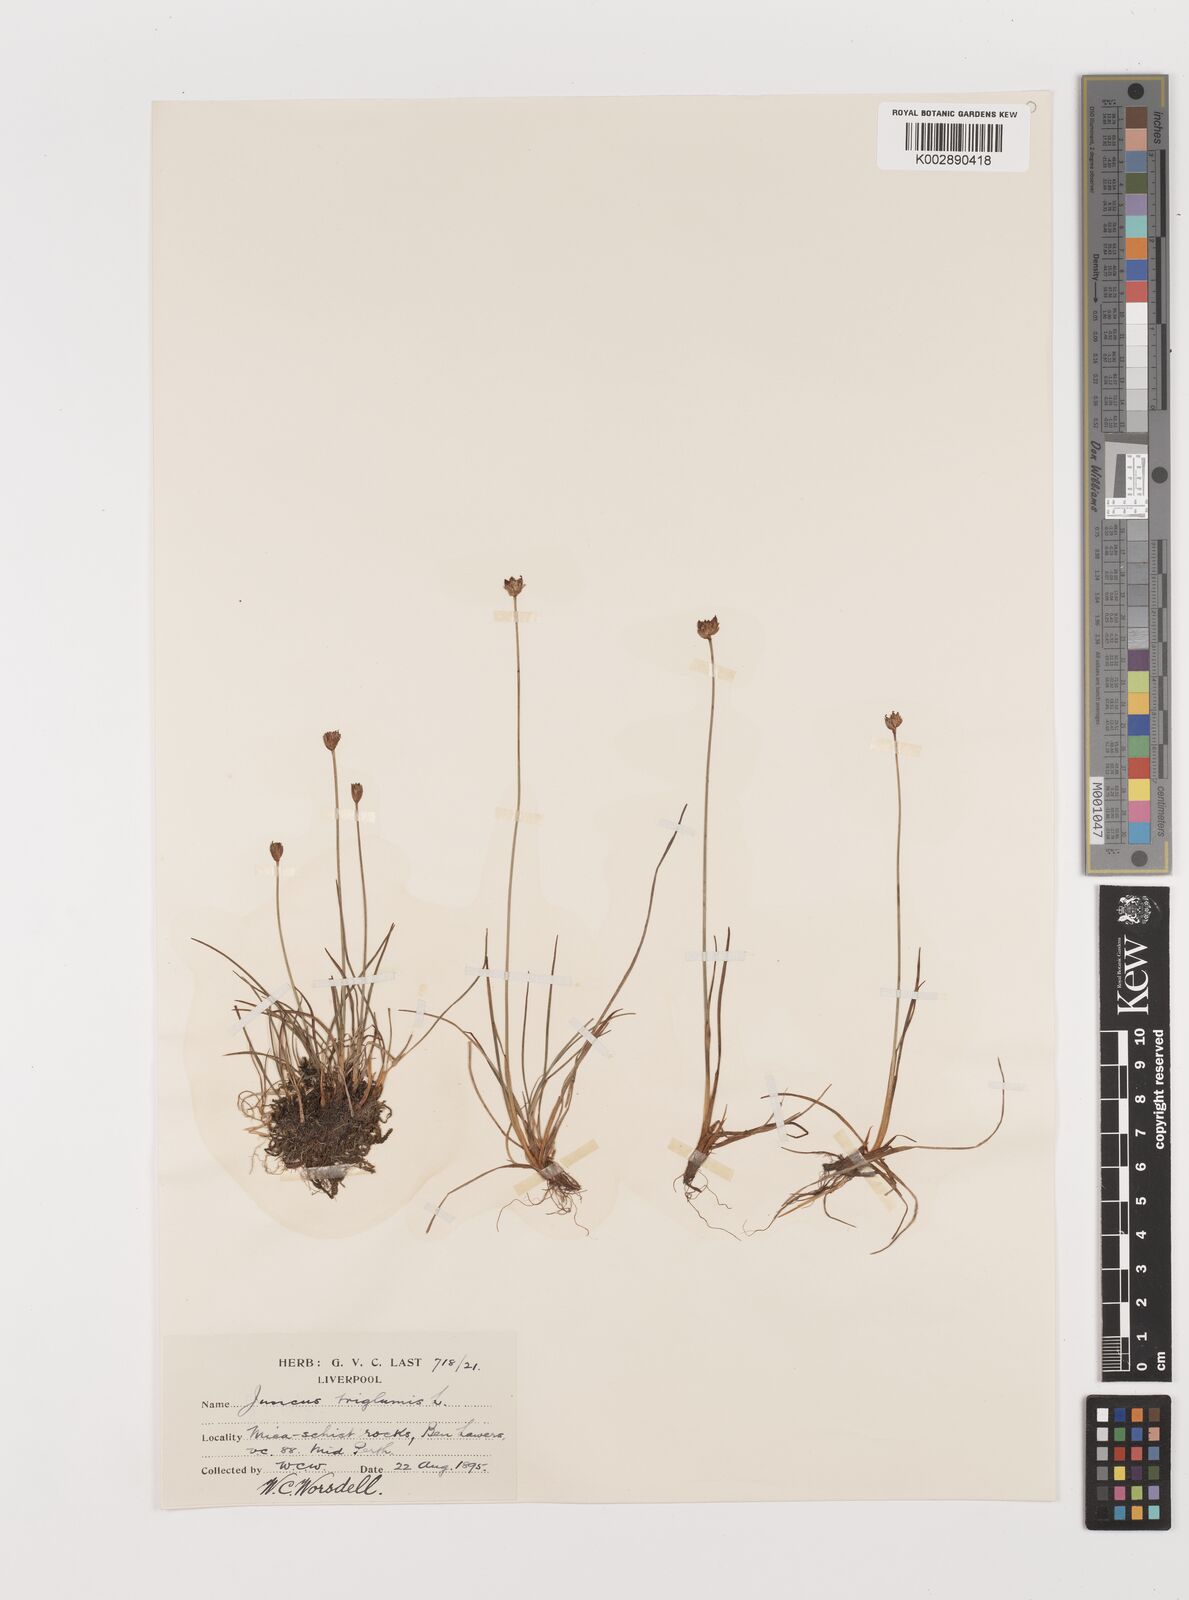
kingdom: Plantae
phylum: Tracheophyta
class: Liliopsida
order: Poales
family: Juncaceae
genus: Juncus
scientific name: Juncus triglumis
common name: Three-flowered rush
